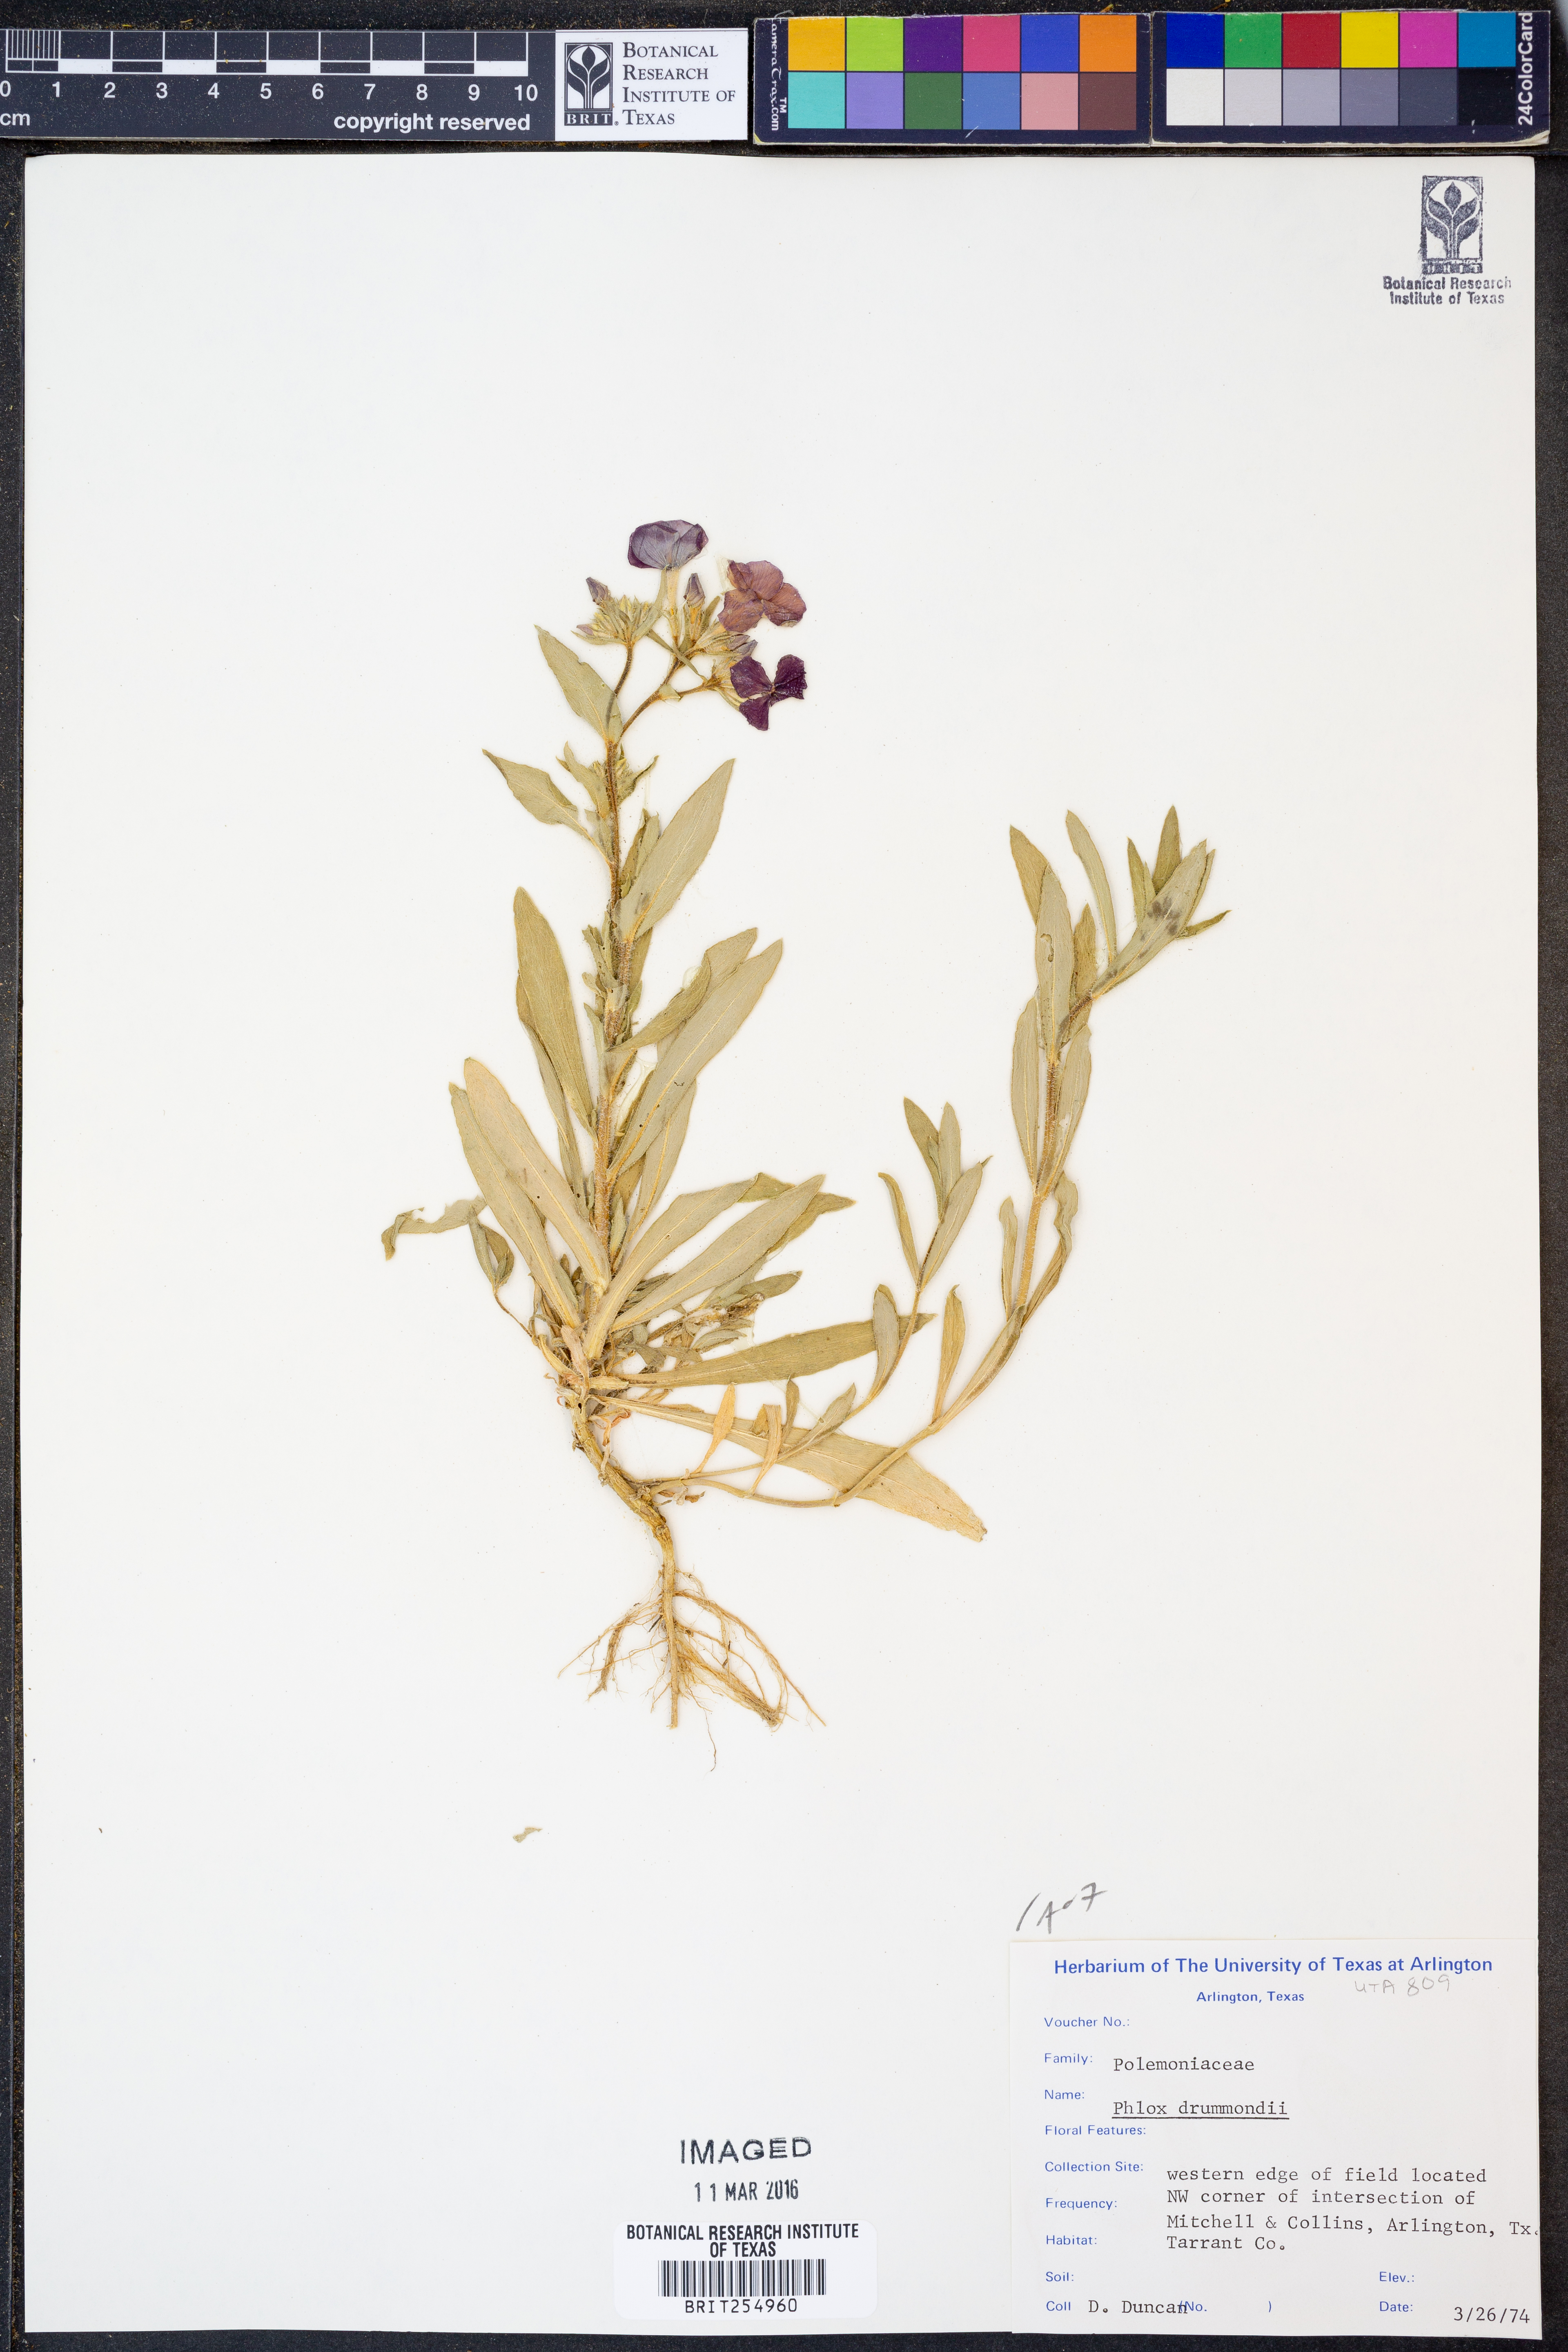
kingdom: Plantae
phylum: Tracheophyta
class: Magnoliopsida
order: Ericales
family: Polemoniaceae
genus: Phlox
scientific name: Phlox drummondii
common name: Drummond's phlox
